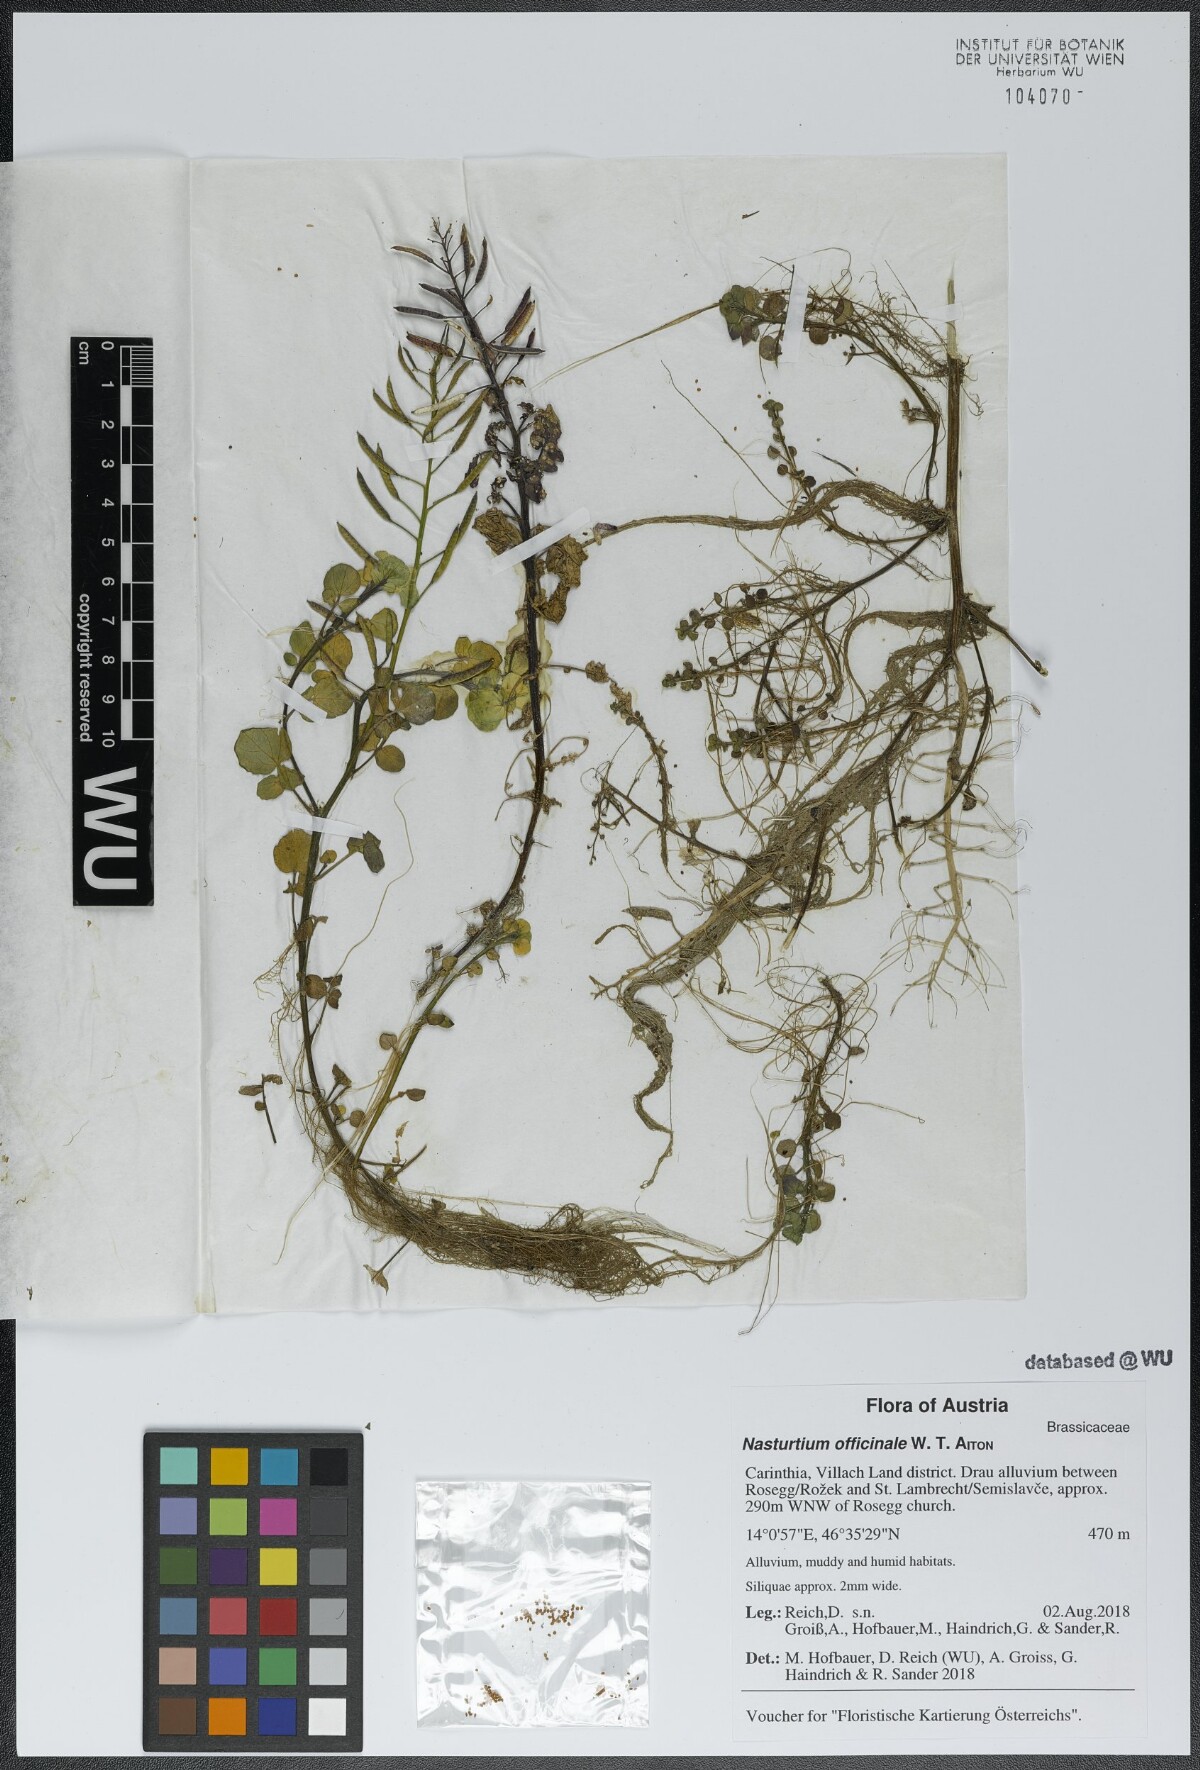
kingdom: Plantae
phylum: Tracheophyta
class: Magnoliopsida
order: Brassicales
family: Brassicaceae
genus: Nasturtium
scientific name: Nasturtium officinale
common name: Watercress
